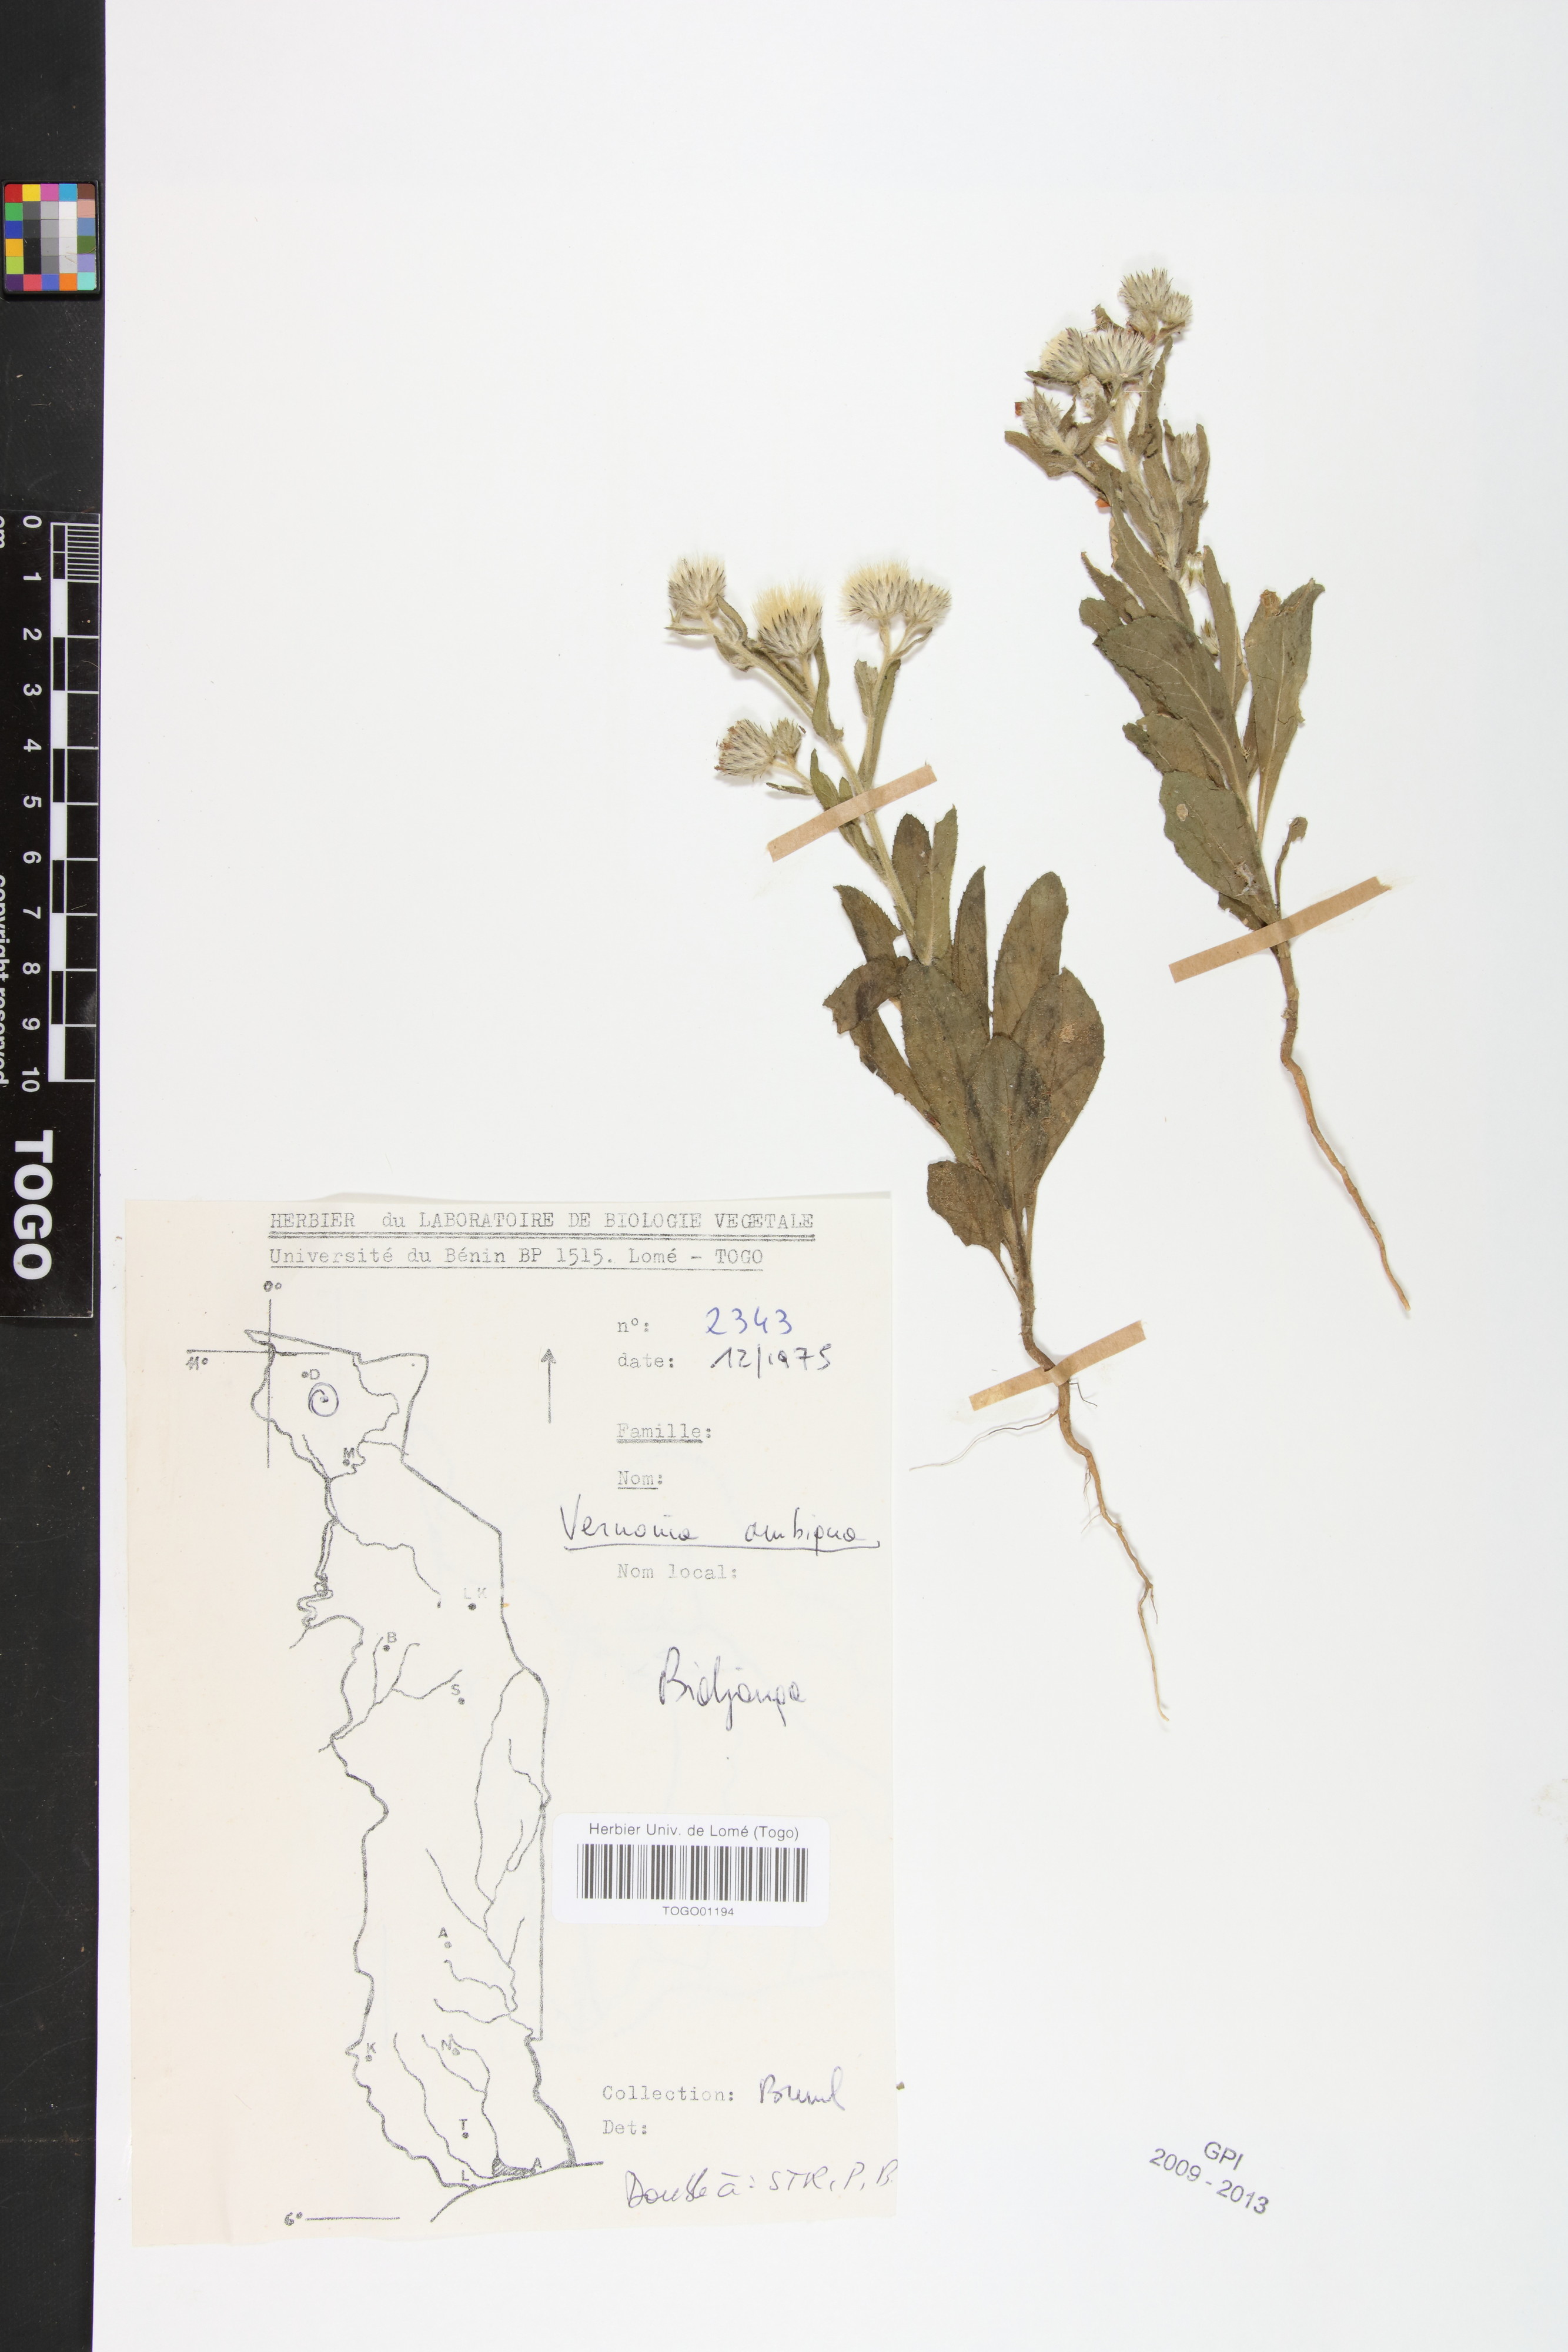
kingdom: Plantae
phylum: Tracheophyta
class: Magnoliopsida
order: Asterales
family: Asteraceae
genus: Vernoniastrum
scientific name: Vernoniastrum ambiguum
